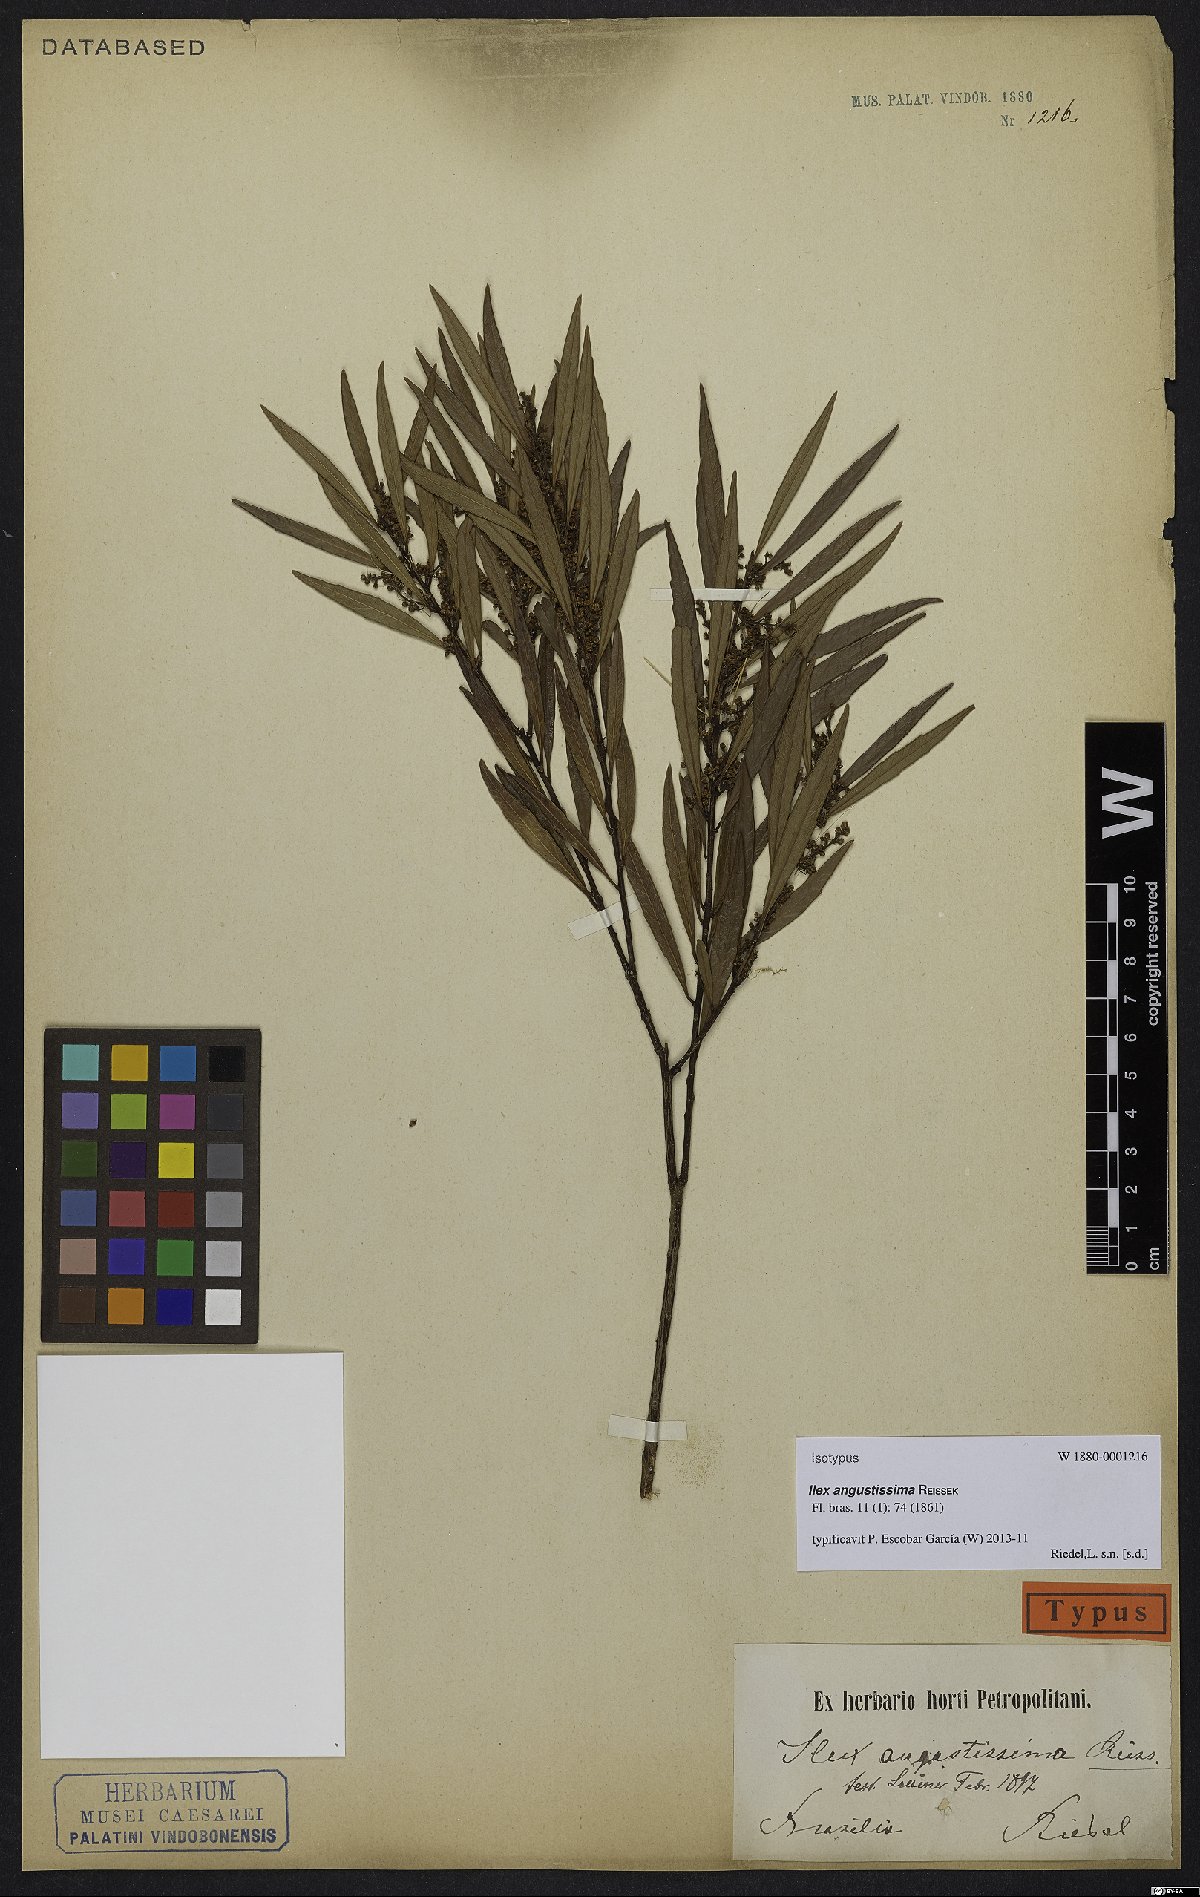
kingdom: Plantae
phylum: Tracheophyta
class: Magnoliopsida
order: Aquifoliales
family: Aquifoliaceae
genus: Ilex
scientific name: Ilex angustissima
